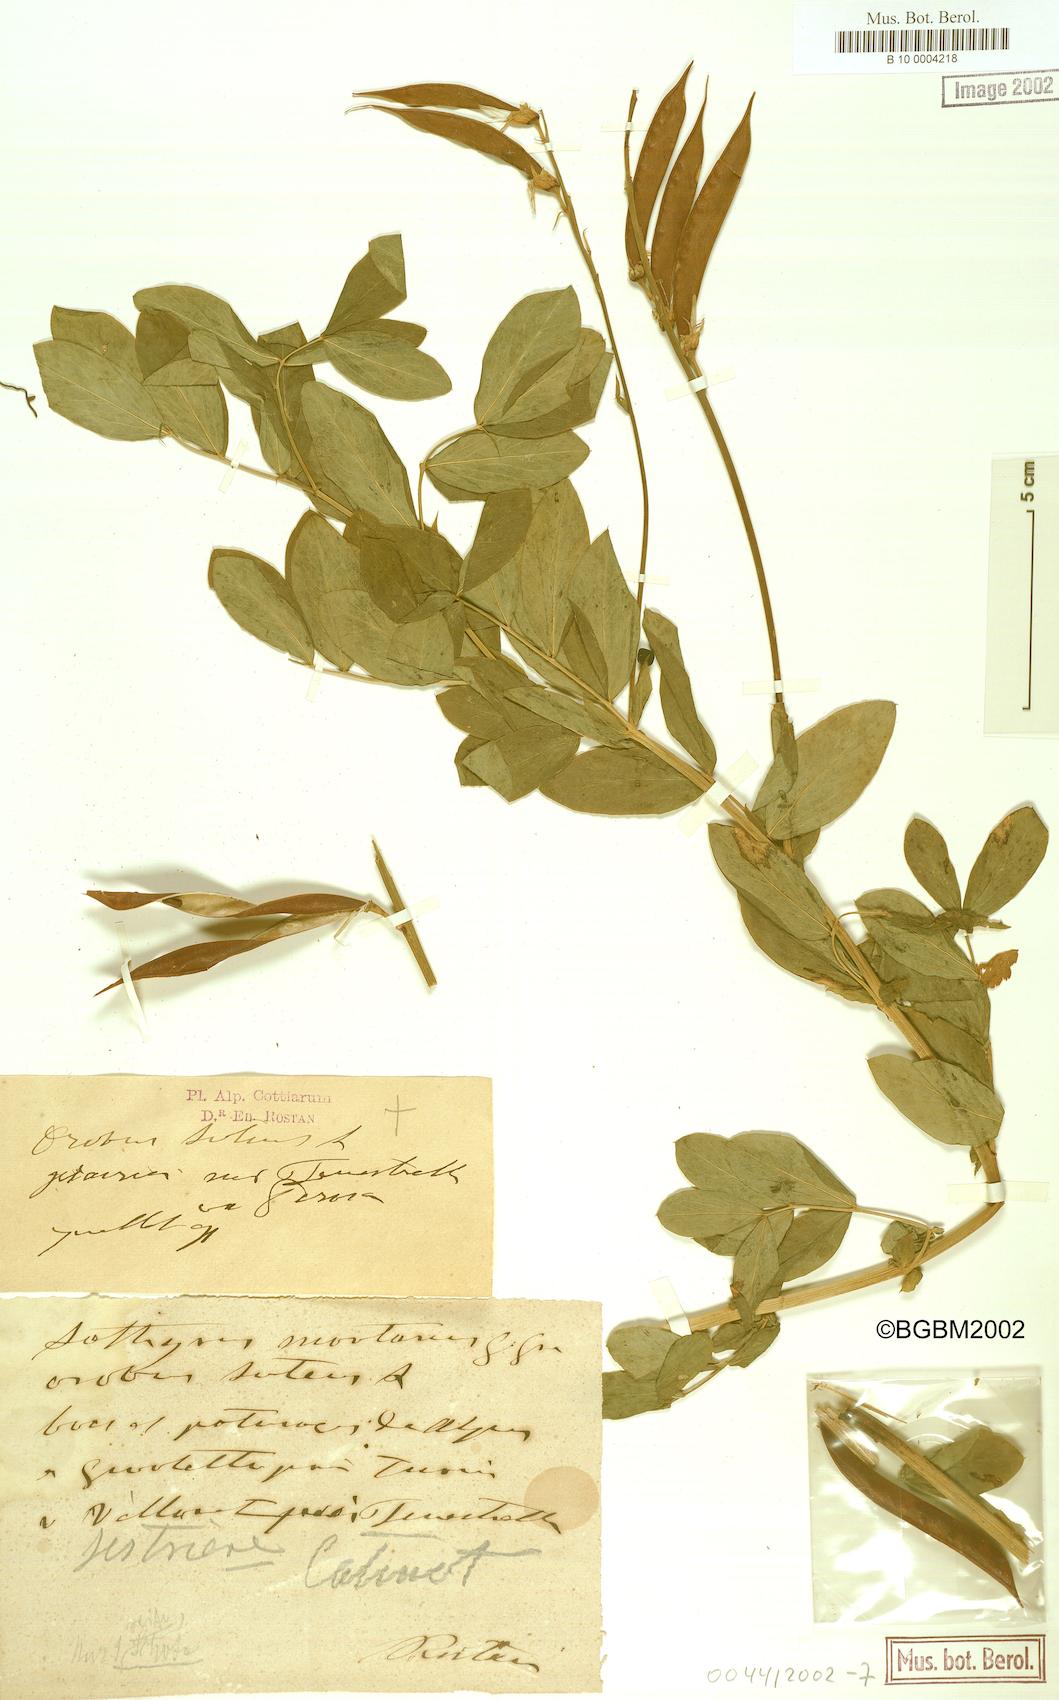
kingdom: Plantae
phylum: Tracheophyta
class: Magnoliopsida
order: Fabales
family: Fabaceae
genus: Lathyrus
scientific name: Lathyrus gmelinii
